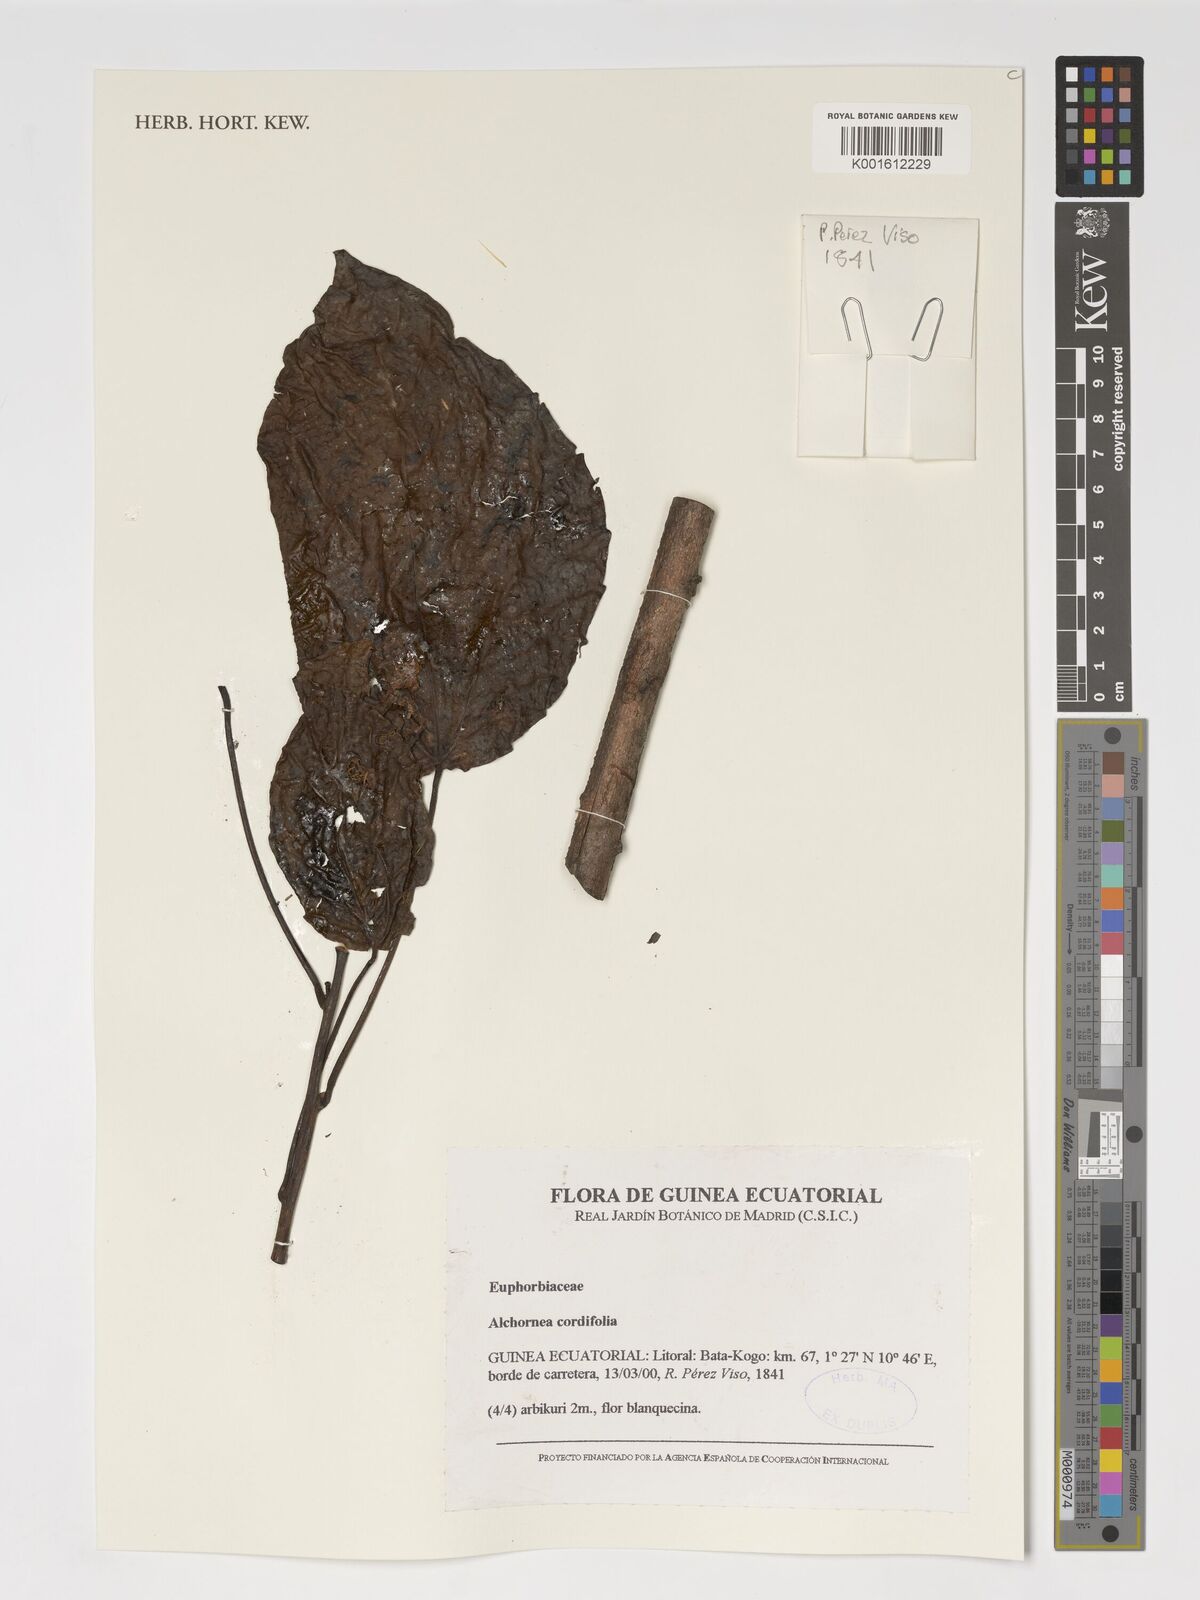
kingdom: Plantae
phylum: Tracheophyta
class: Magnoliopsida
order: Malpighiales
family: Euphorbiaceae
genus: Alchornea
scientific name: Alchornea cordifolia
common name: Christmasbush
